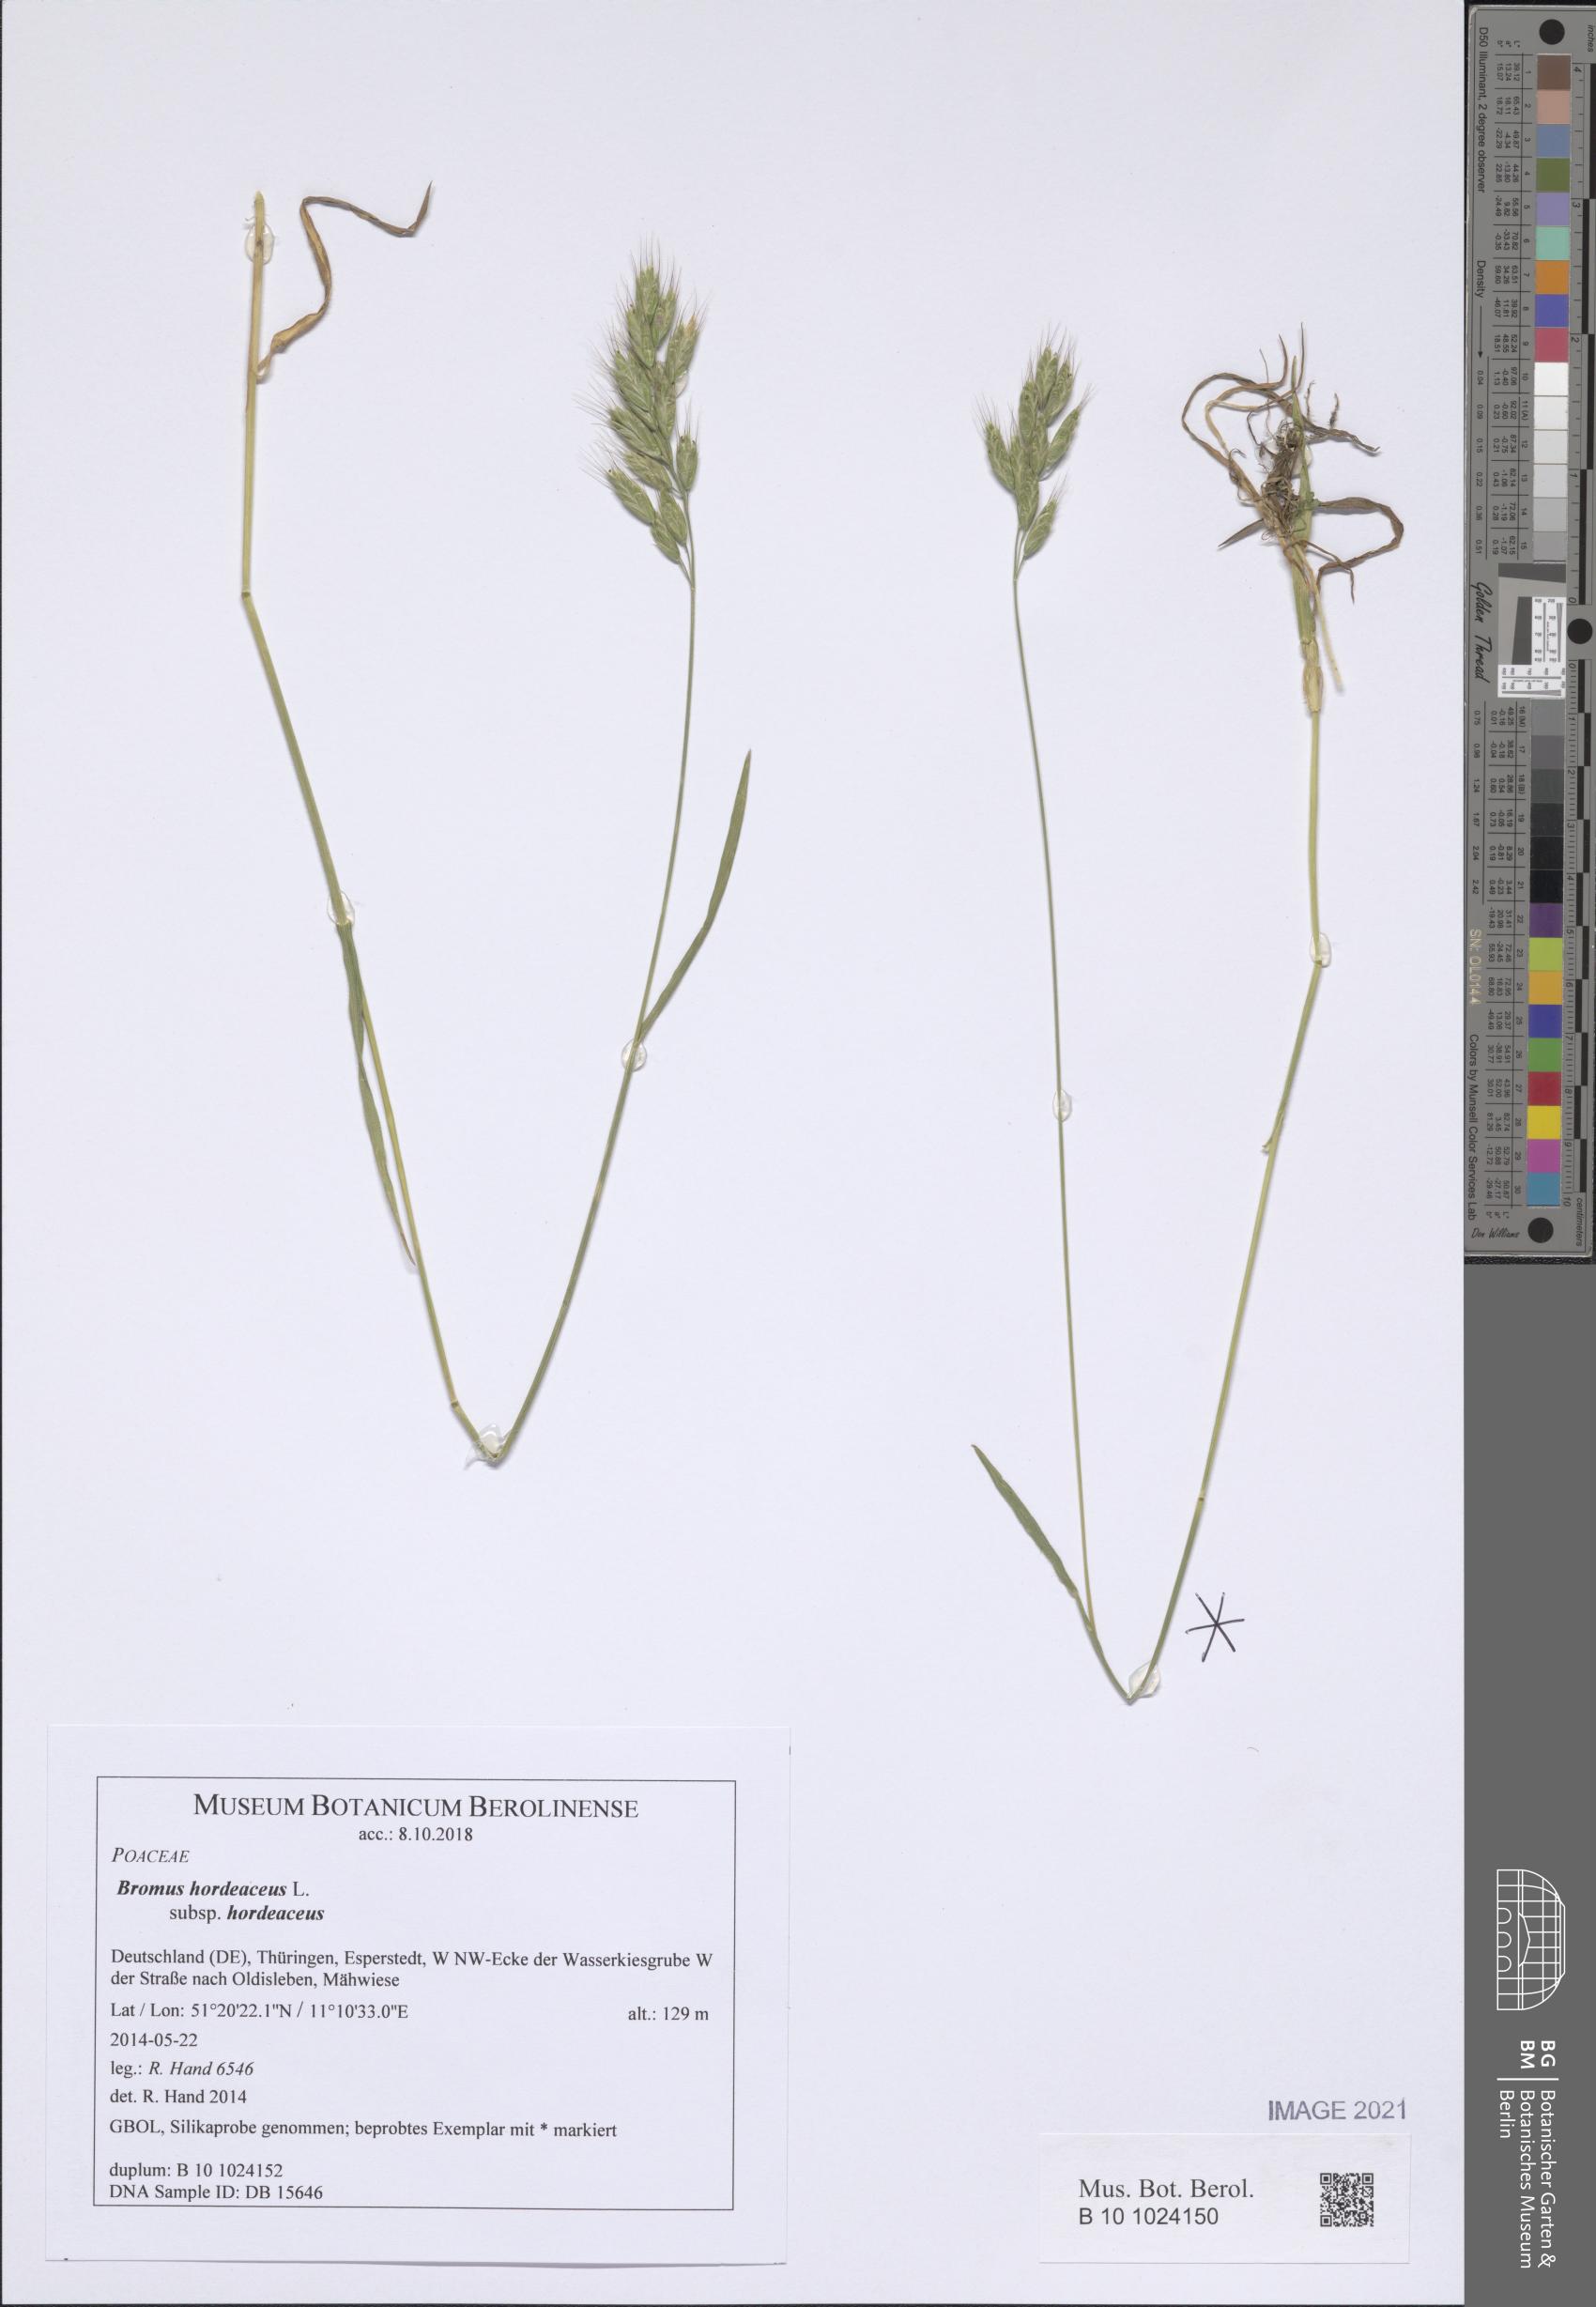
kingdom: Plantae
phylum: Tracheophyta
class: Liliopsida
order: Poales
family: Poaceae
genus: Bromus
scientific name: Bromus hordeaceus
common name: Soft brome
